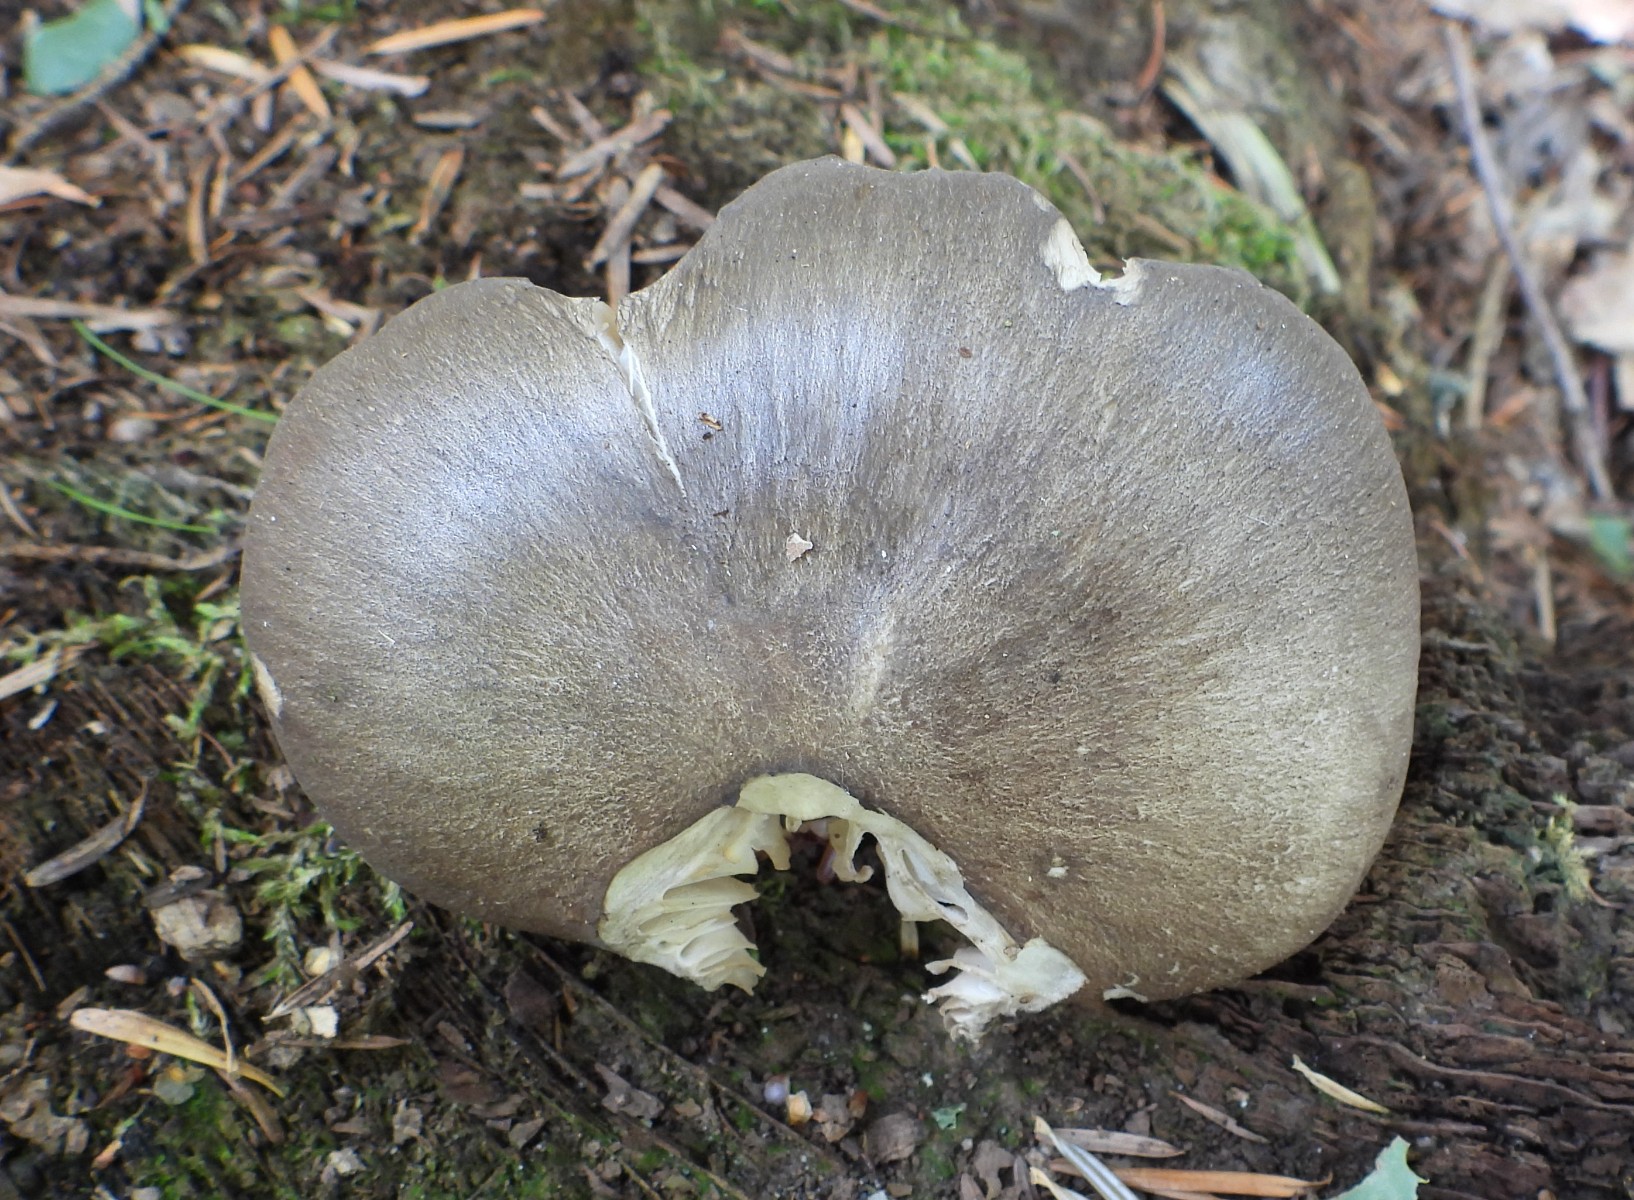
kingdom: Fungi
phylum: Basidiomycota
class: Agaricomycetes
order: Agaricales
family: Tricholomataceae
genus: Megacollybia
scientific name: Megacollybia platyphylla
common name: bredbladet væbnerhat
